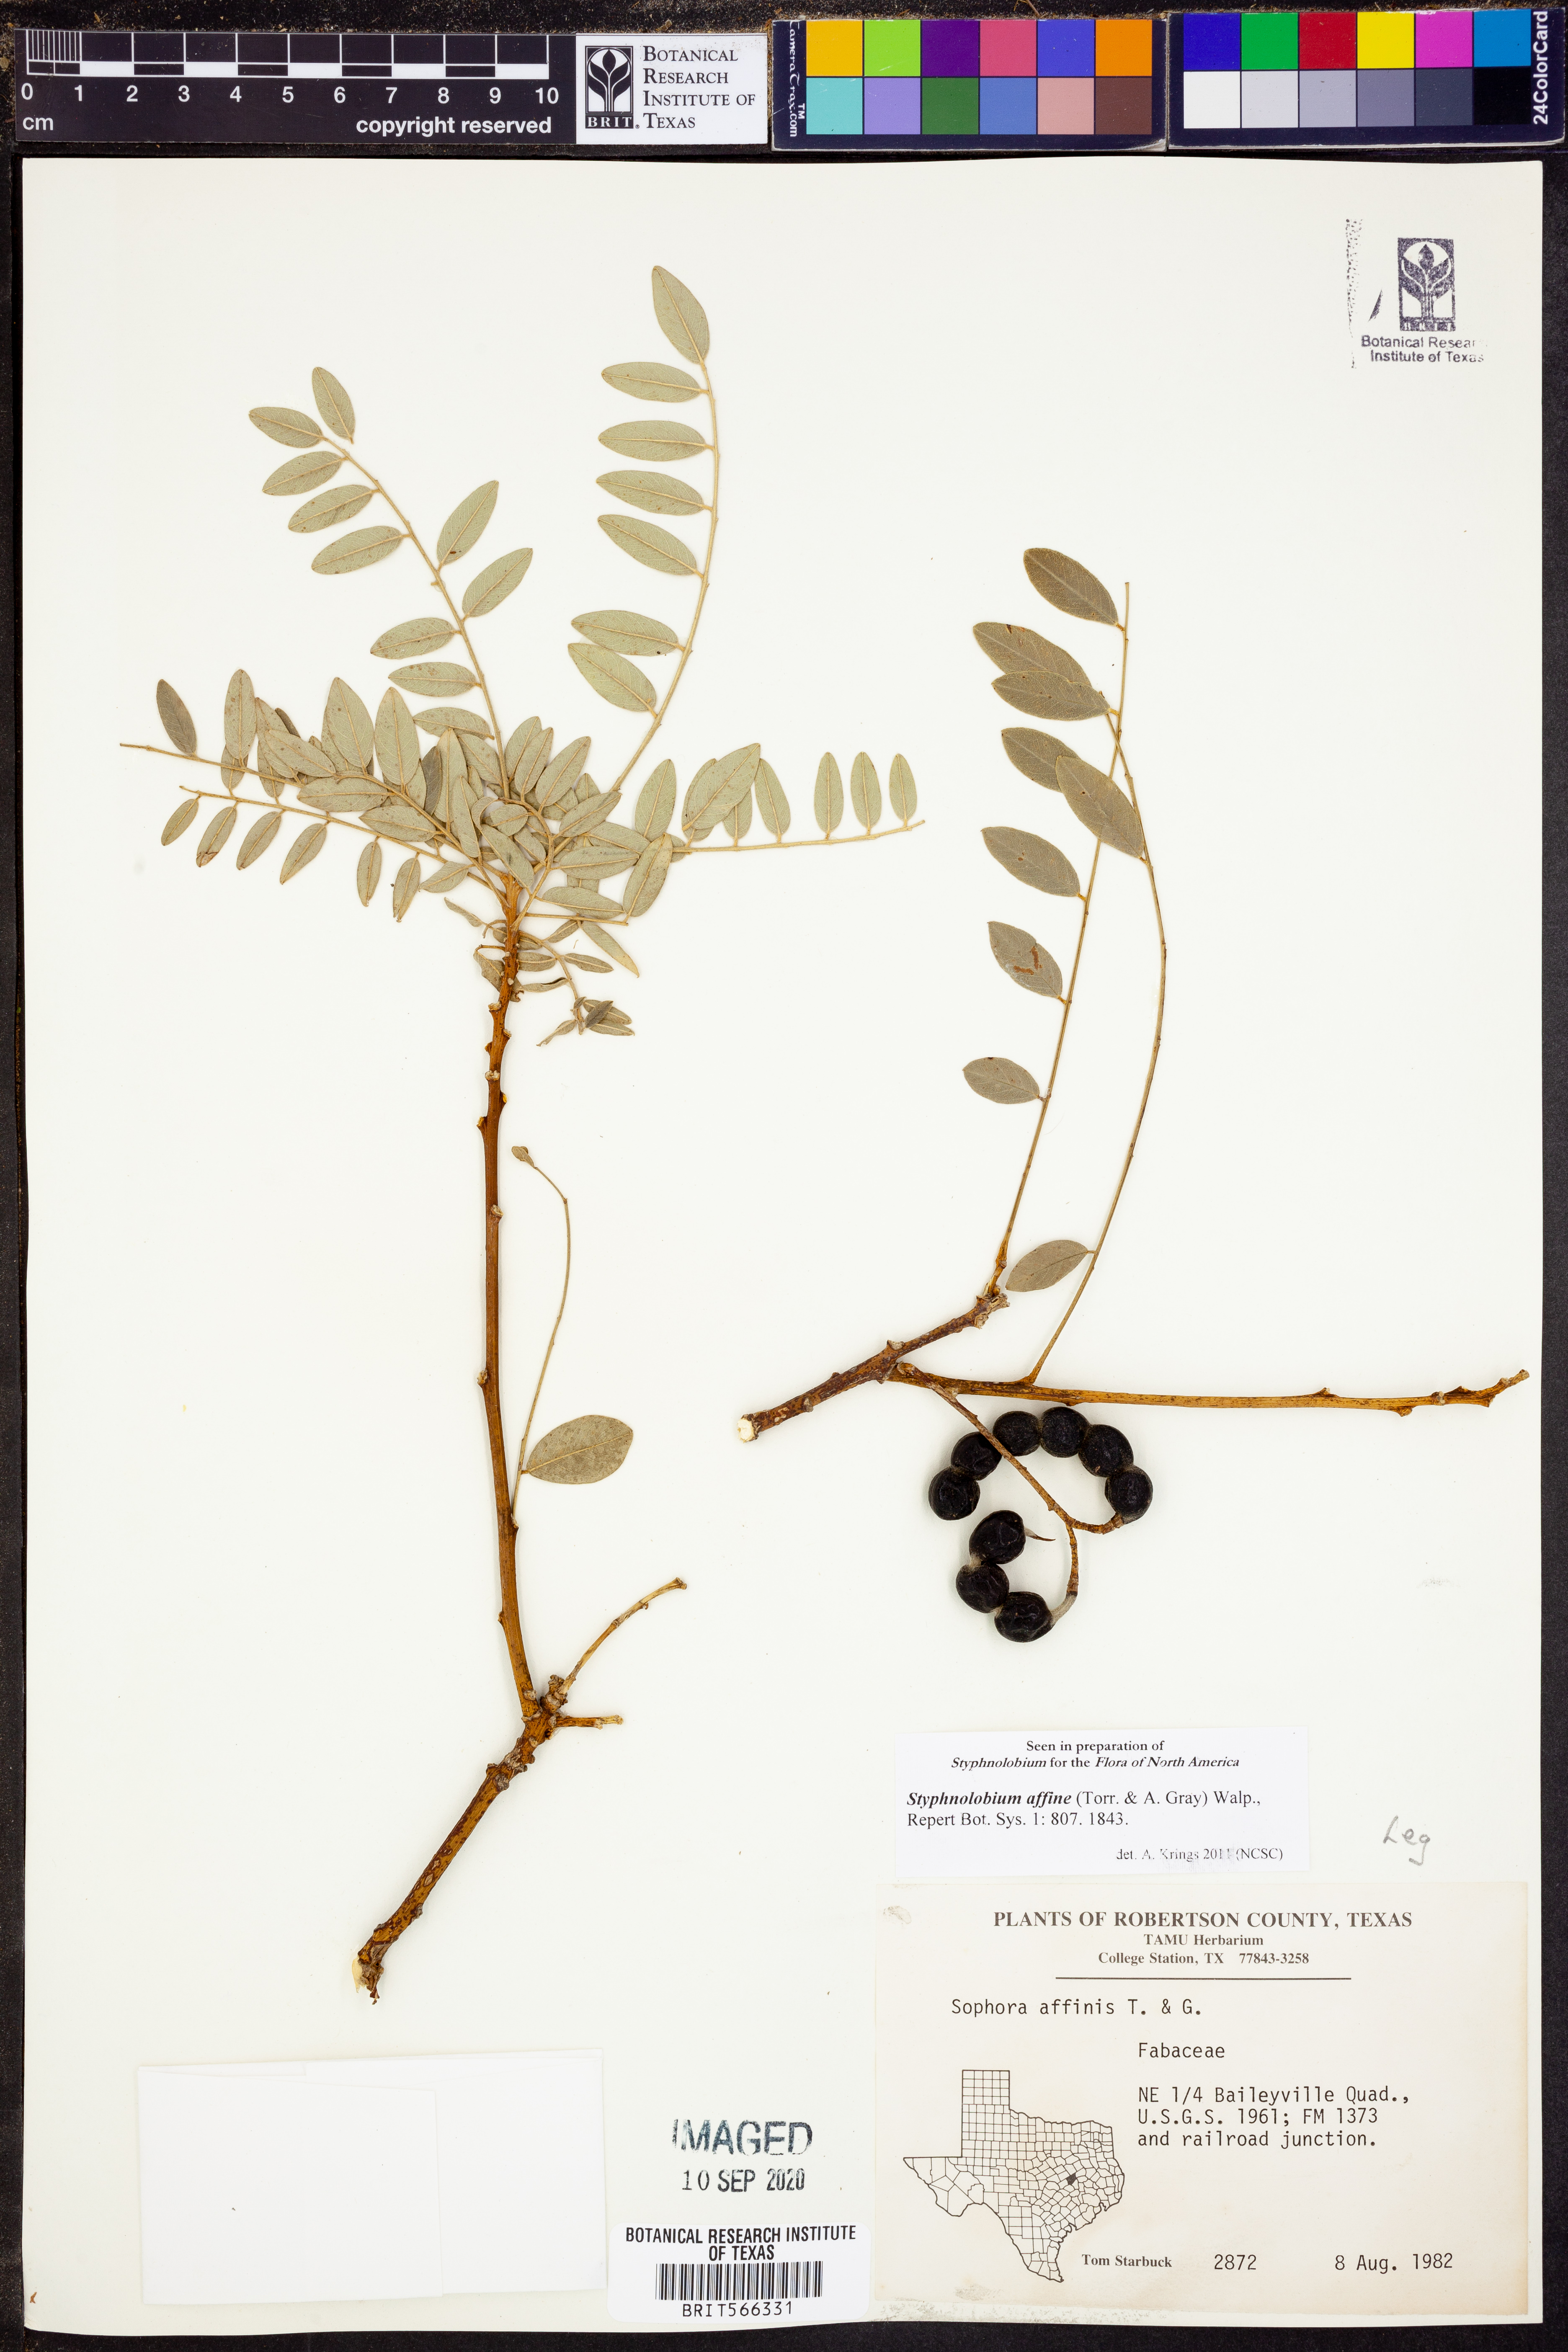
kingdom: Plantae
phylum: Tracheophyta
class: Magnoliopsida
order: Fabales
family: Fabaceae
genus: Styphnolobium
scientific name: Styphnolobium affine
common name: Texas sophora
